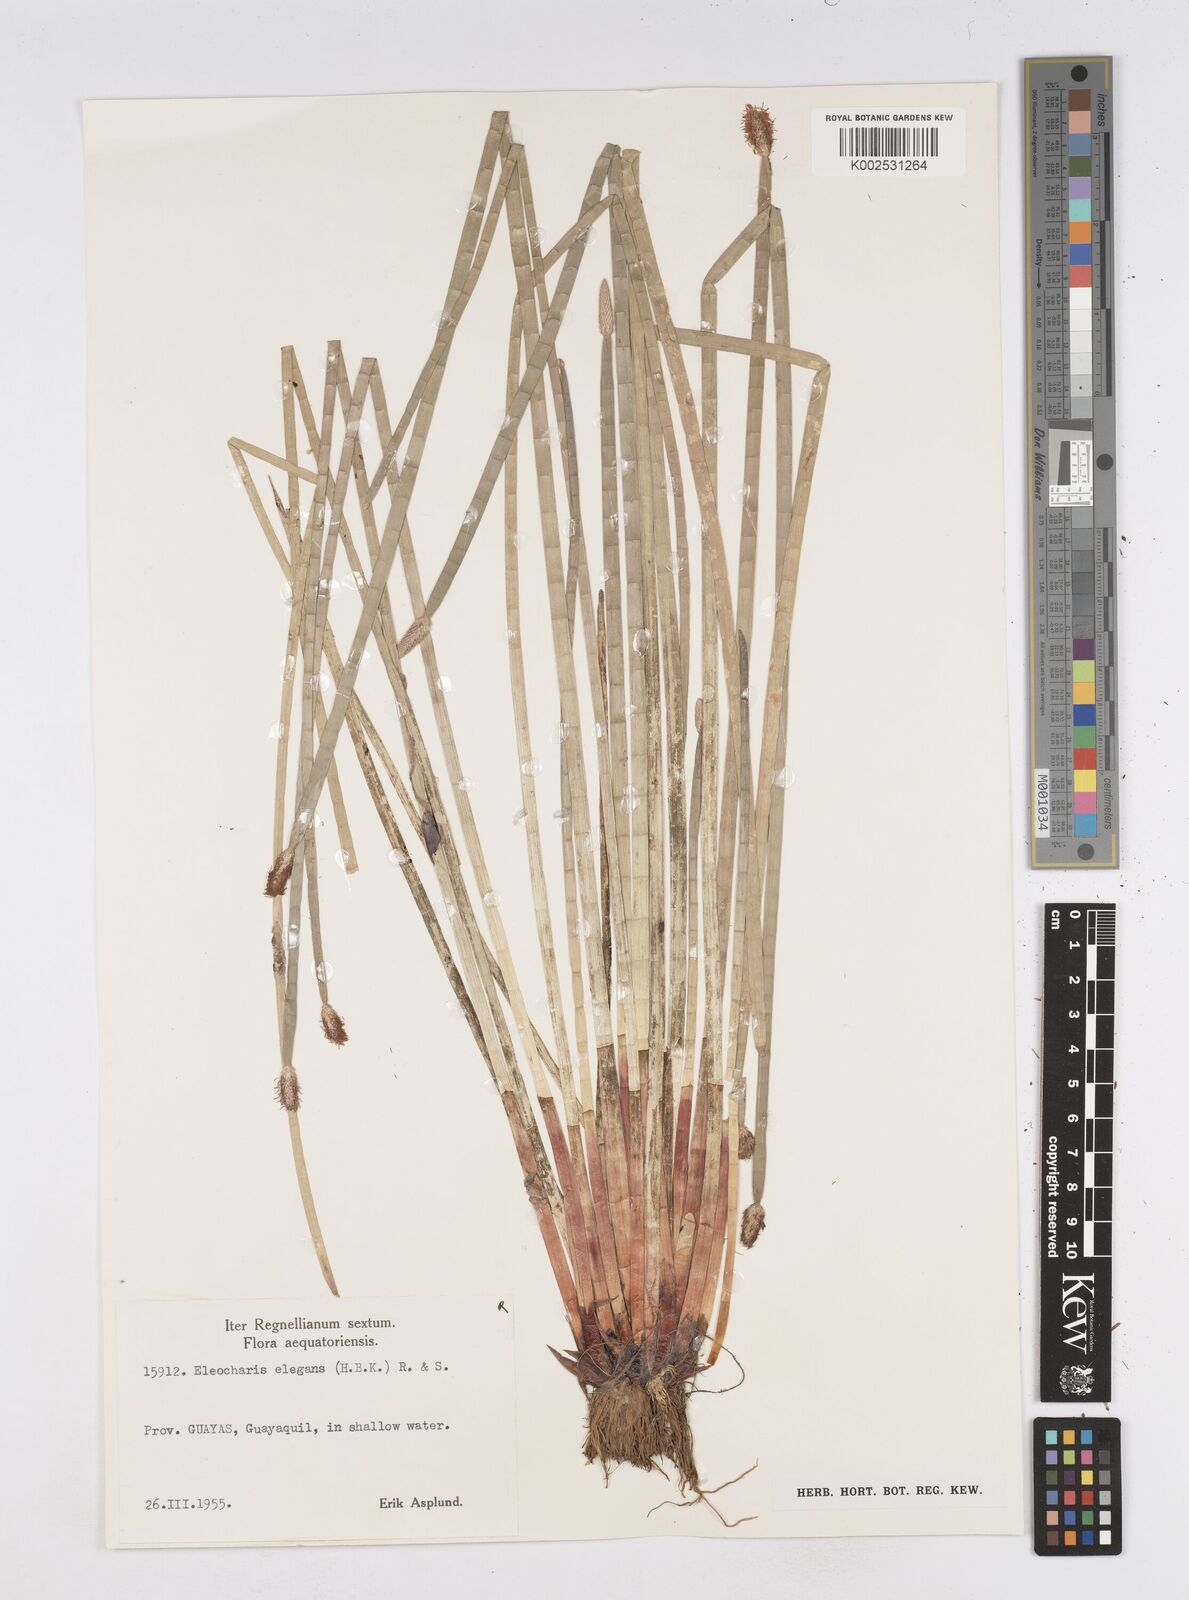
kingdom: Plantae
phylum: Tracheophyta
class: Liliopsida
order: Poales
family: Cyperaceae
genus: Eleocharis
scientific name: Eleocharis elegans
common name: Elegant spike-rush
